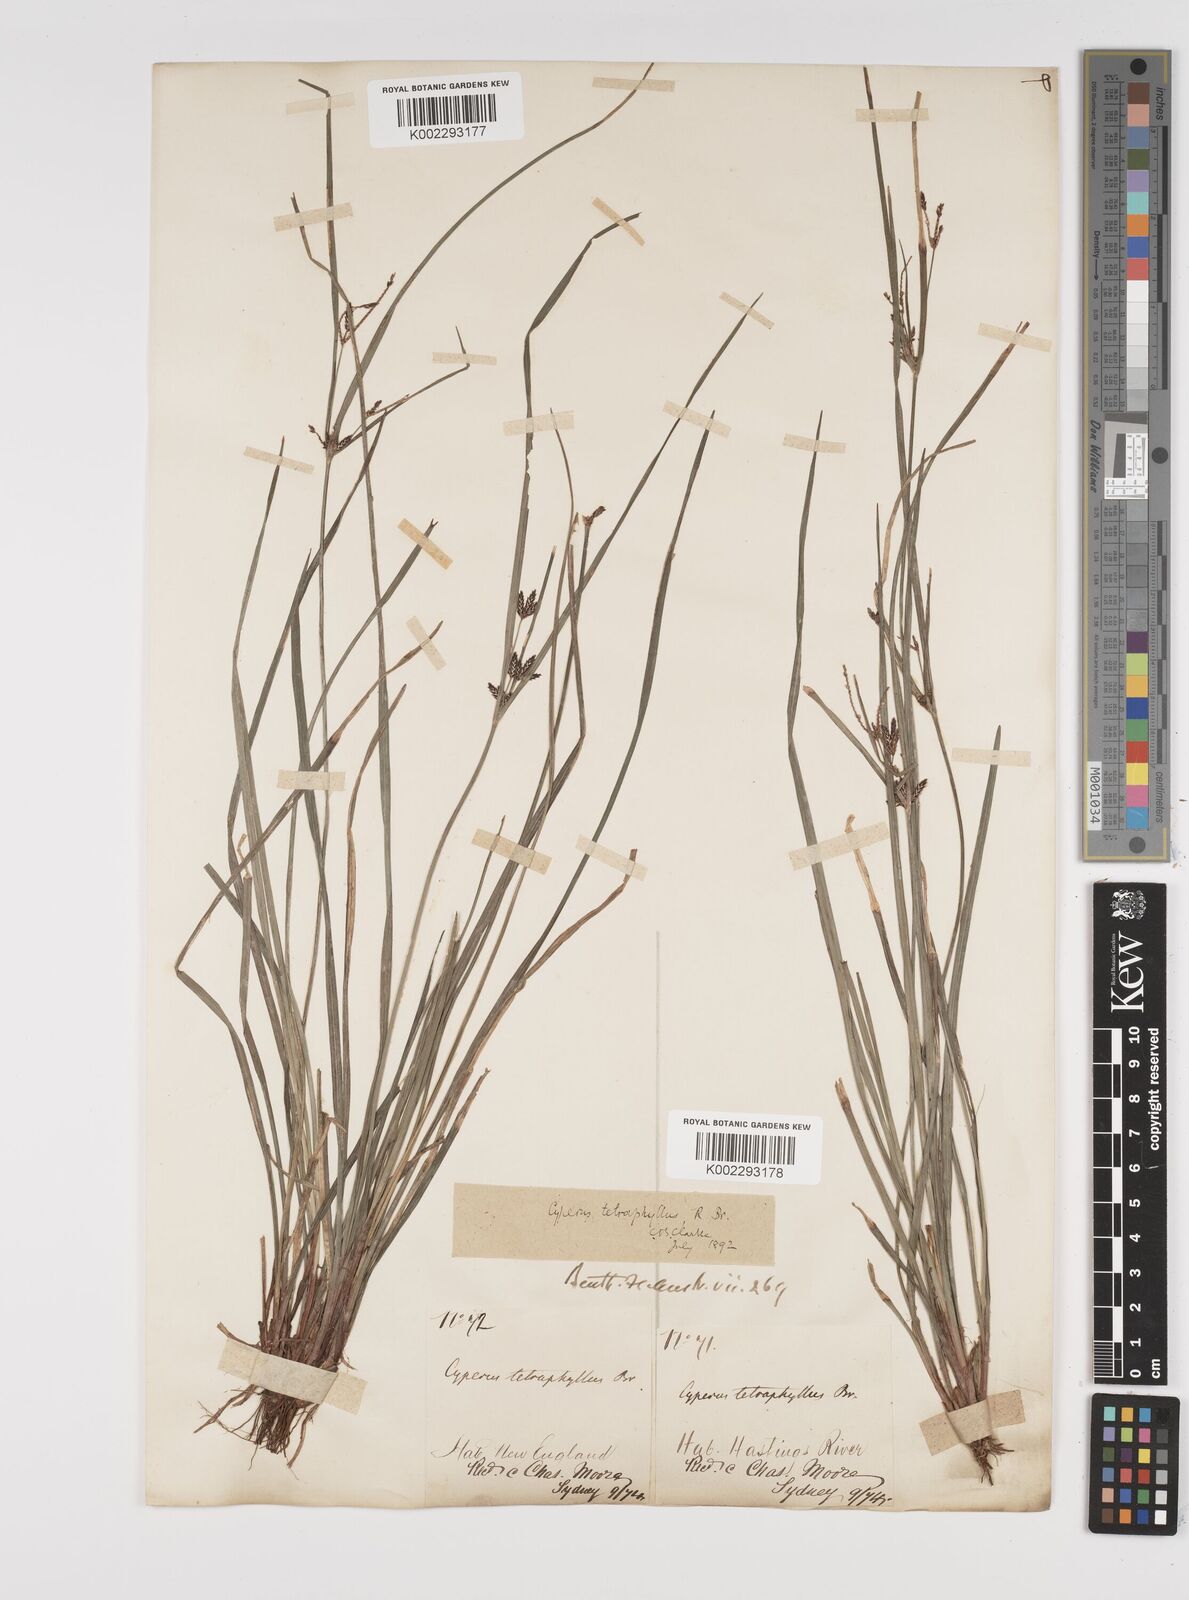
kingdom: Plantae
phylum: Tracheophyta
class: Liliopsida
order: Poales
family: Cyperaceae
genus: Cyperus
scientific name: Cyperus tetraphyllus
